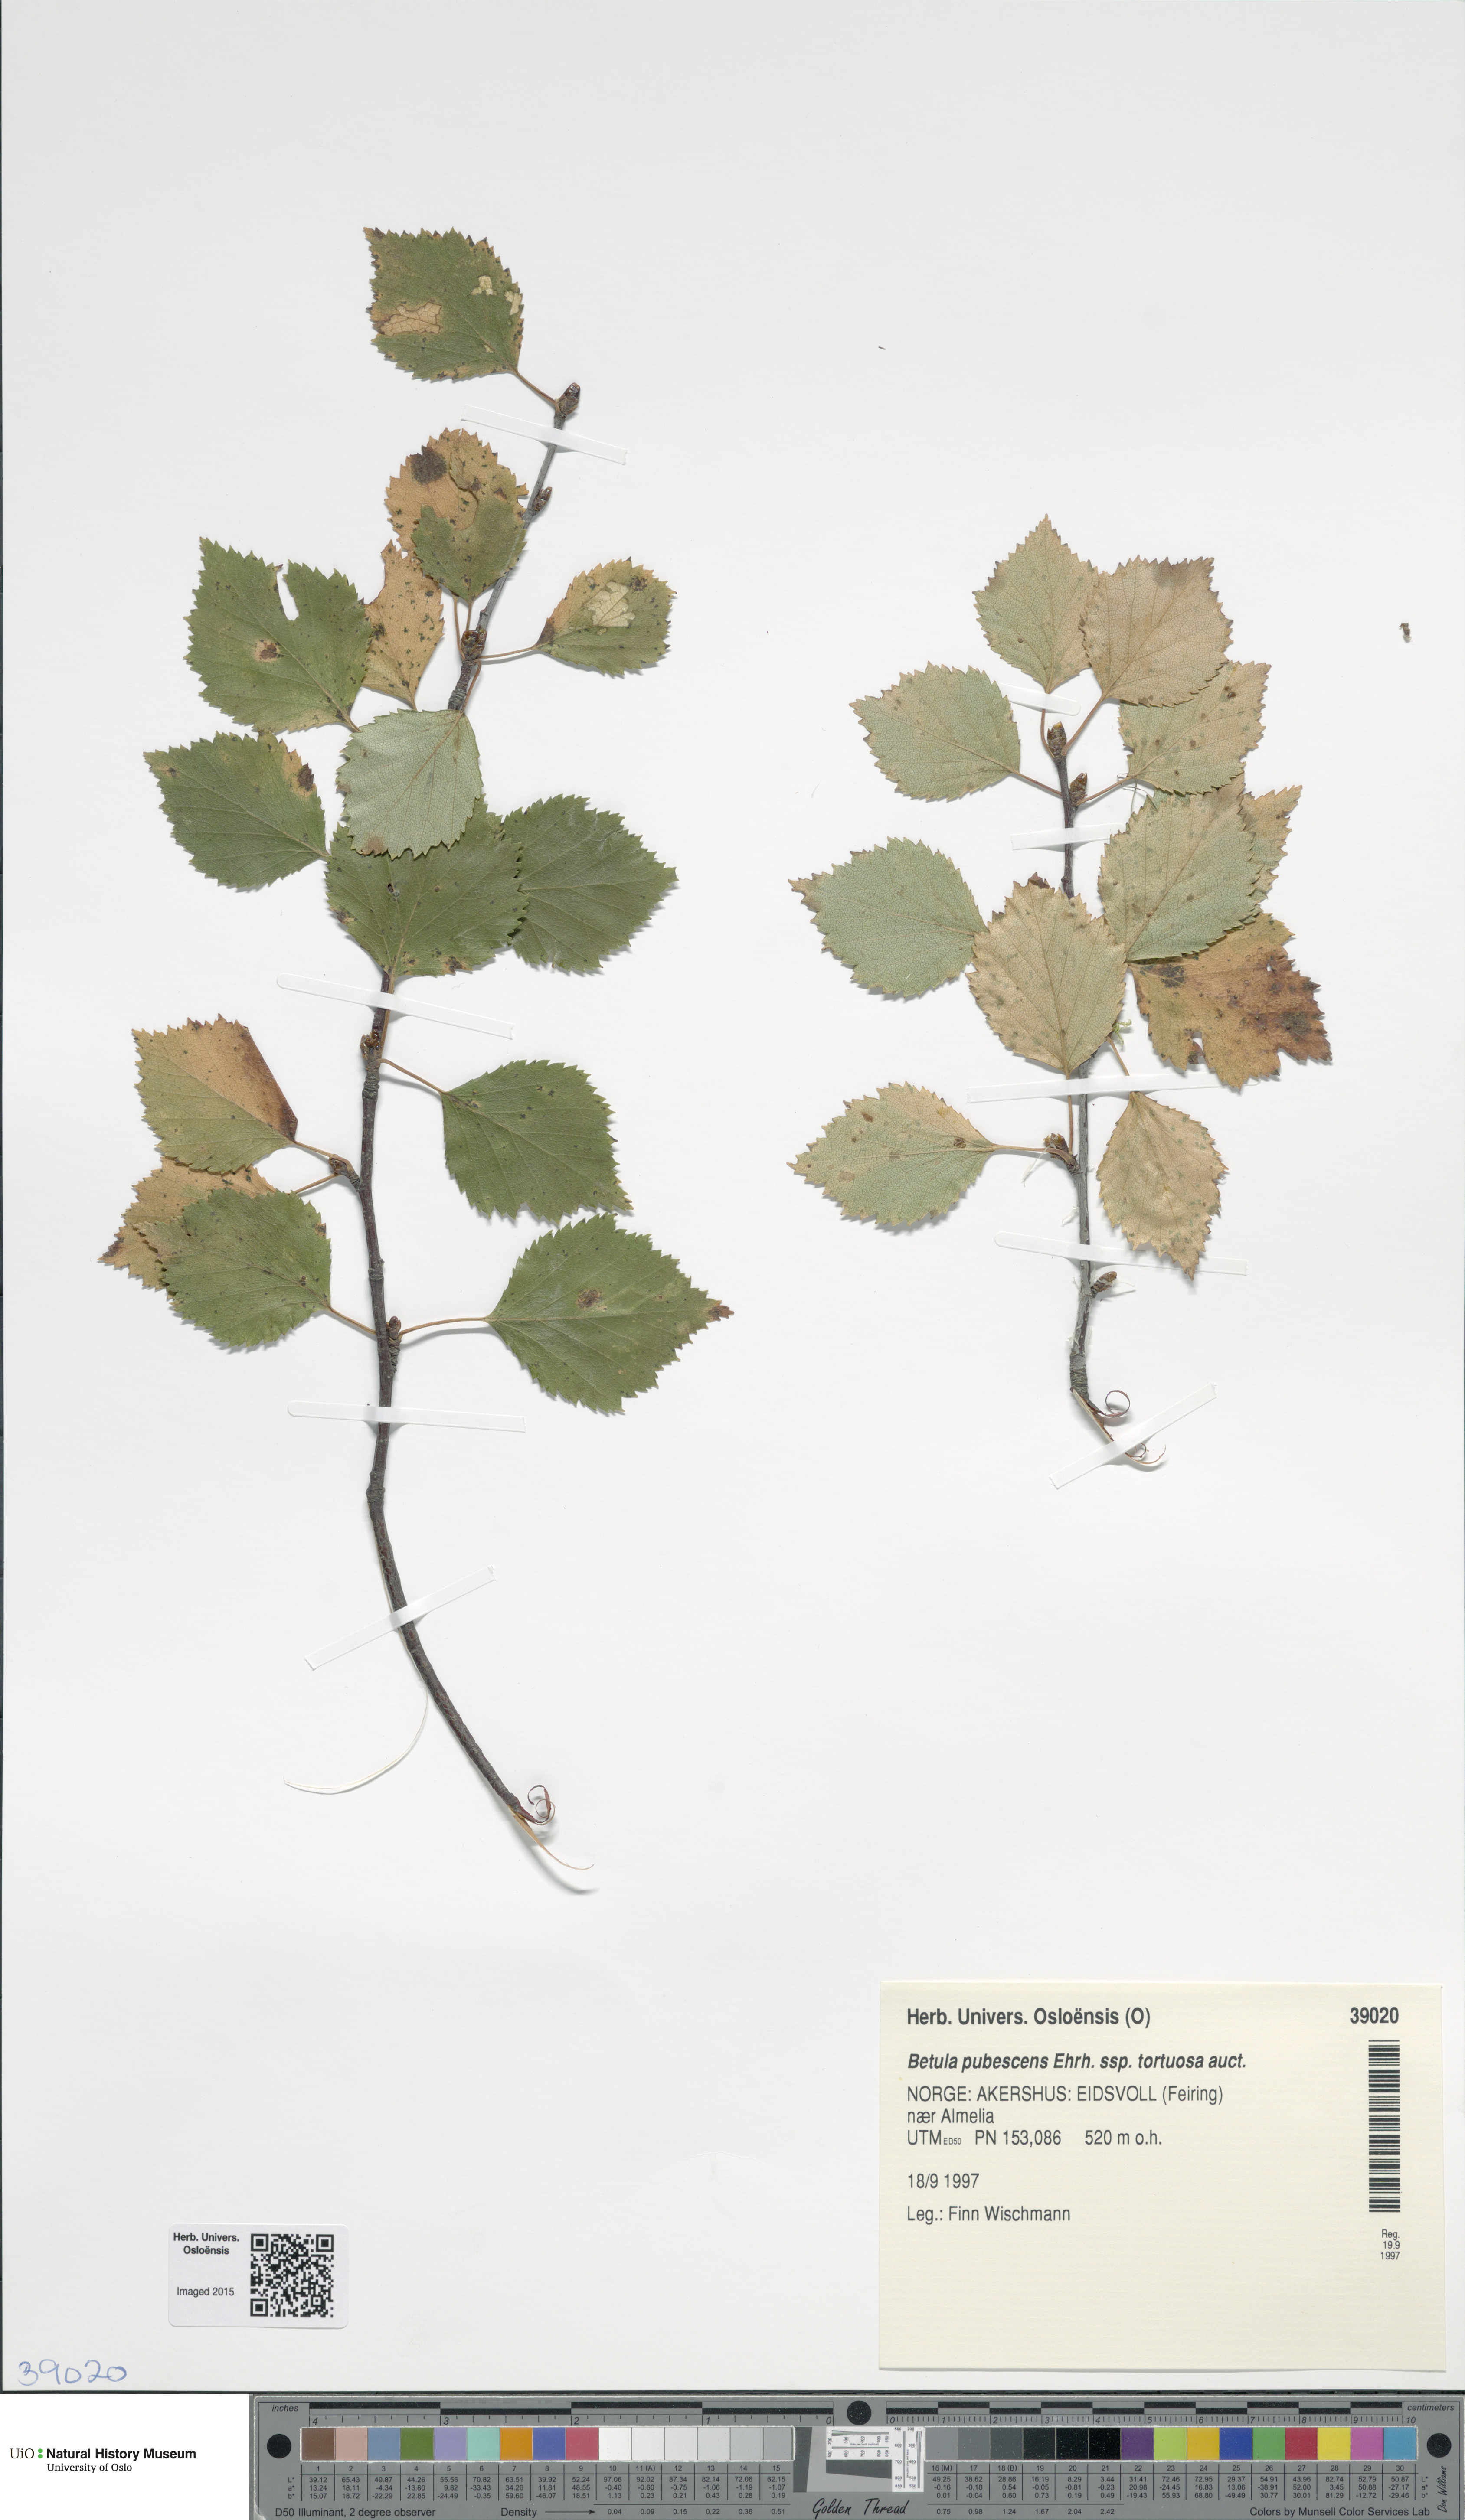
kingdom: Plantae
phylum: Tracheophyta
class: Magnoliopsida
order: Fagales
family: Betulaceae
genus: Betula
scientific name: Betula pubescens
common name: Downy birch
